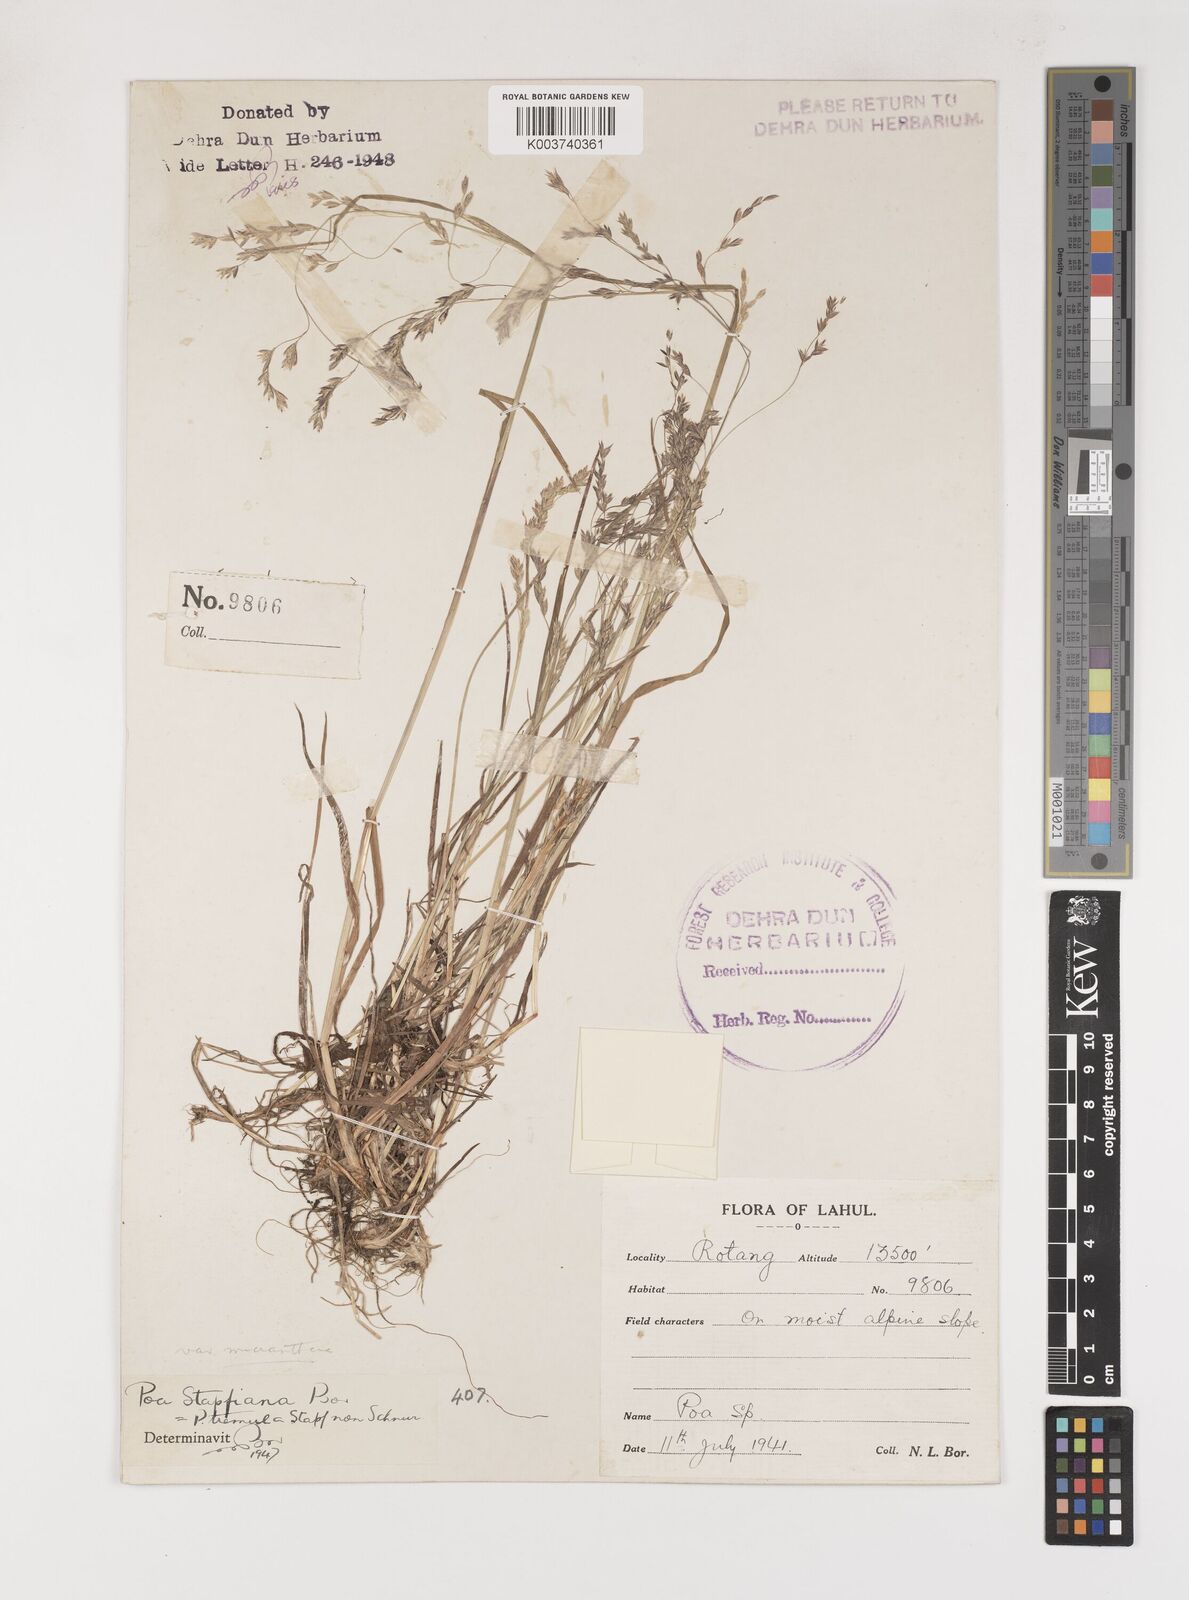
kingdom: Plantae
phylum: Tracheophyta
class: Liliopsida
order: Poales
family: Poaceae
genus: Poa
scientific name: Poa stapfiana
